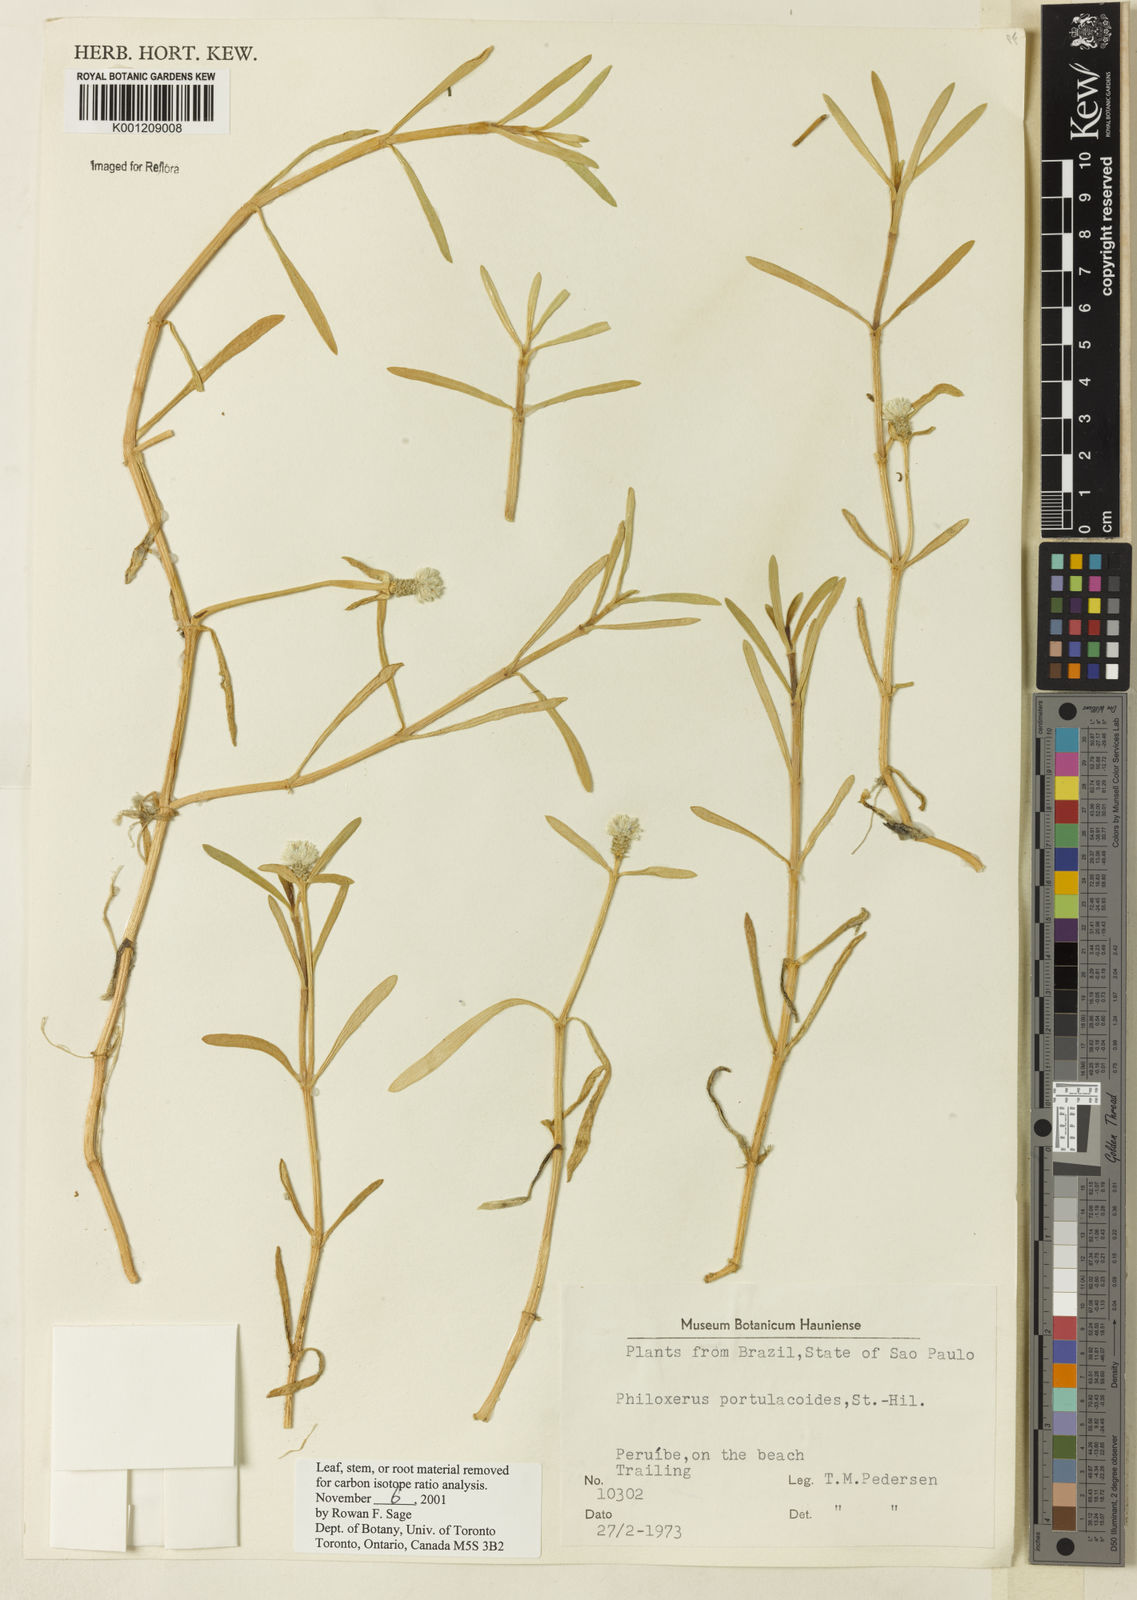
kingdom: Plantae
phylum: Tracheophyta
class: Magnoliopsida
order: Caryophyllales
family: Amaranthaceae
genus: Gomphrena
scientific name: Gomphrena portulacoides
